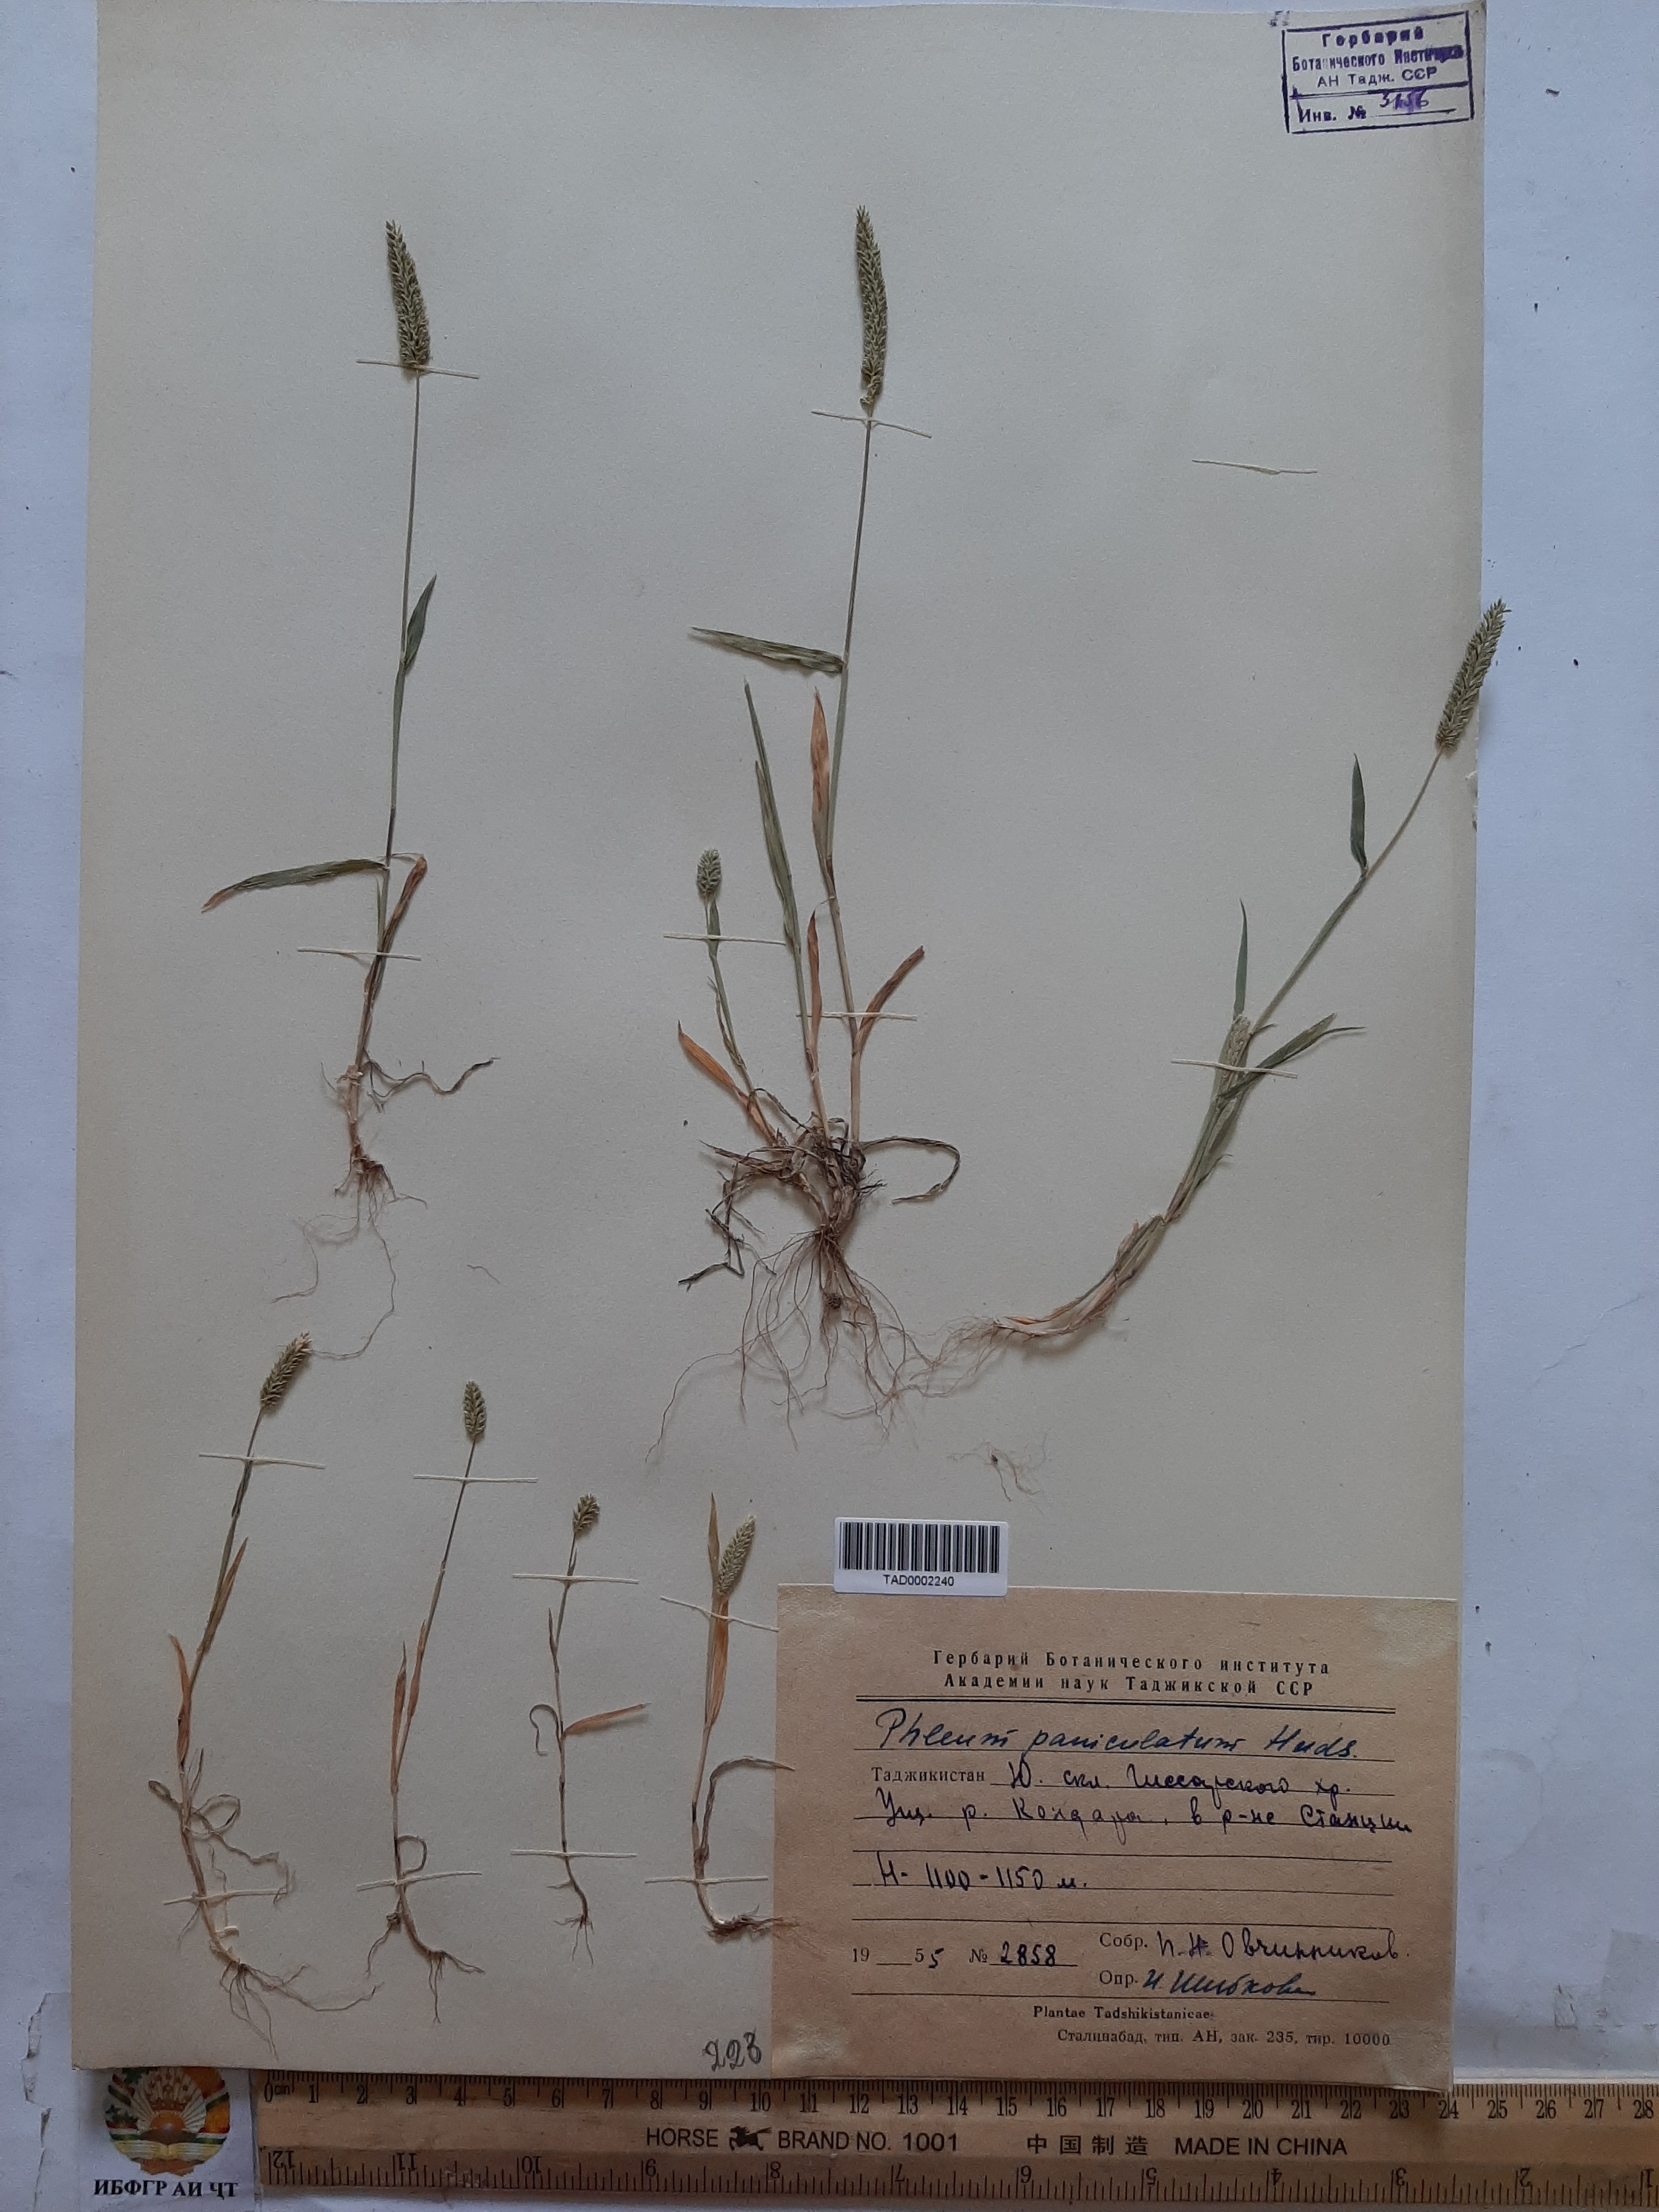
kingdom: Plantae
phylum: Tracheophyta
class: Liliopsida
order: Poales
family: Poaceae
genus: Phleum
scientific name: Phleum paniculatum
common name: British timothy
